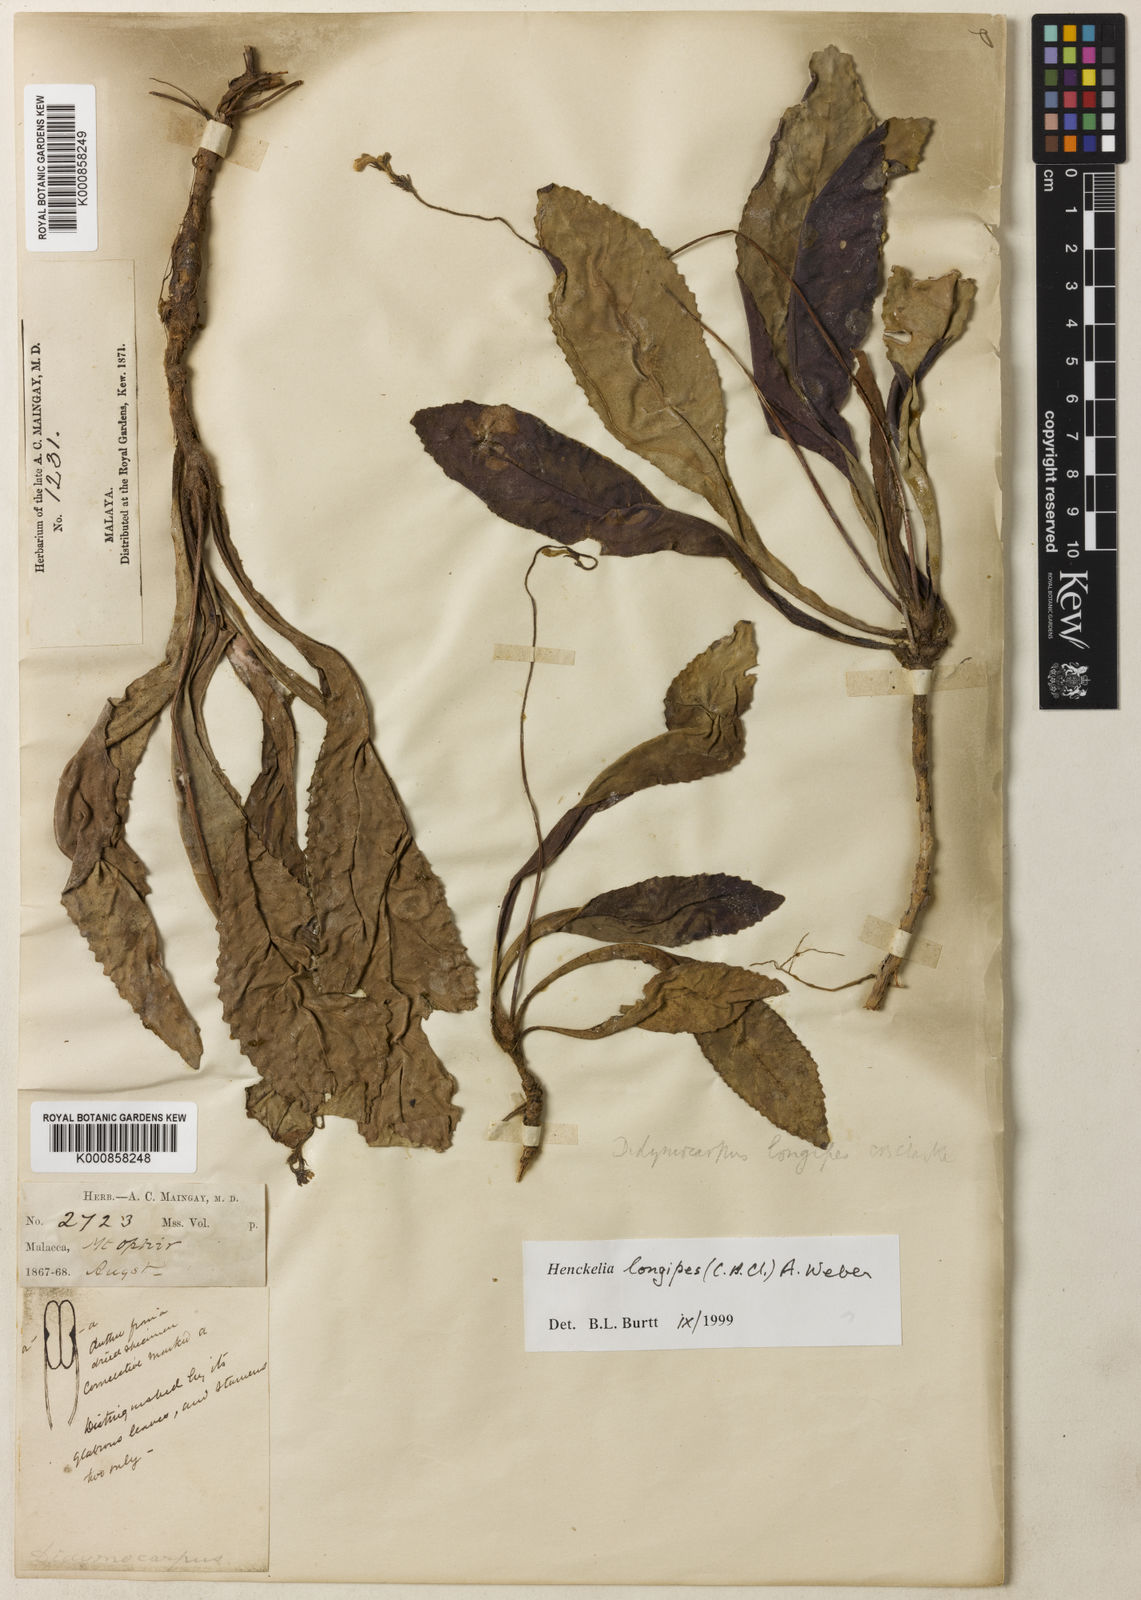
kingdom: Plantae
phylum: Tracheophyta
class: Magnoliopsida
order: Lamiales
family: Gesneriaceae
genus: Codonoboea
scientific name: Codonoboea longipes
